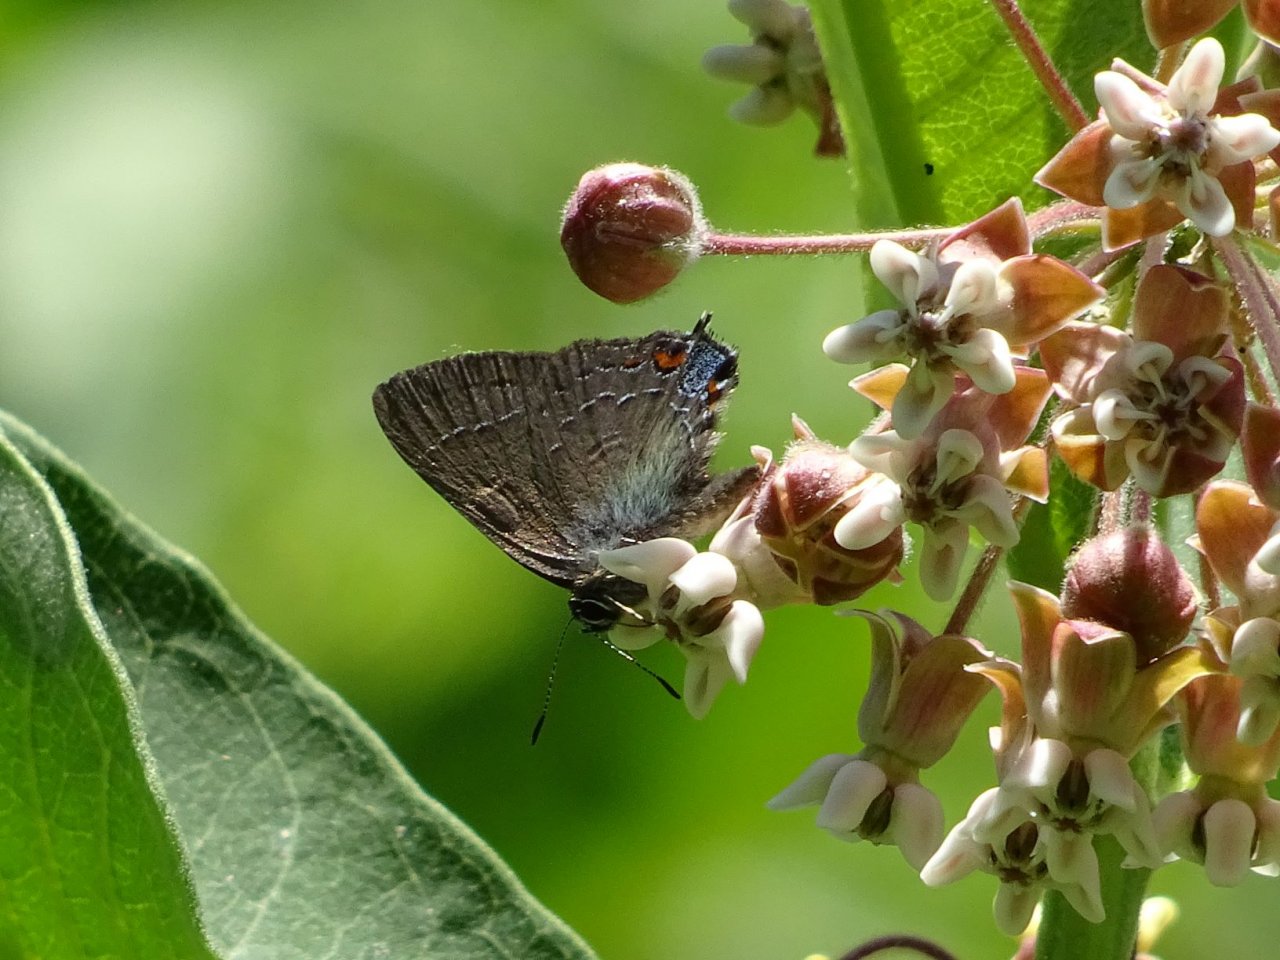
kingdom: Animalia
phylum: Arthropoda
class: Insecta
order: Lepidoptera
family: Lycaenidae
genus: Satyrium
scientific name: Satyrium calanus
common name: Banded Hairstreak
